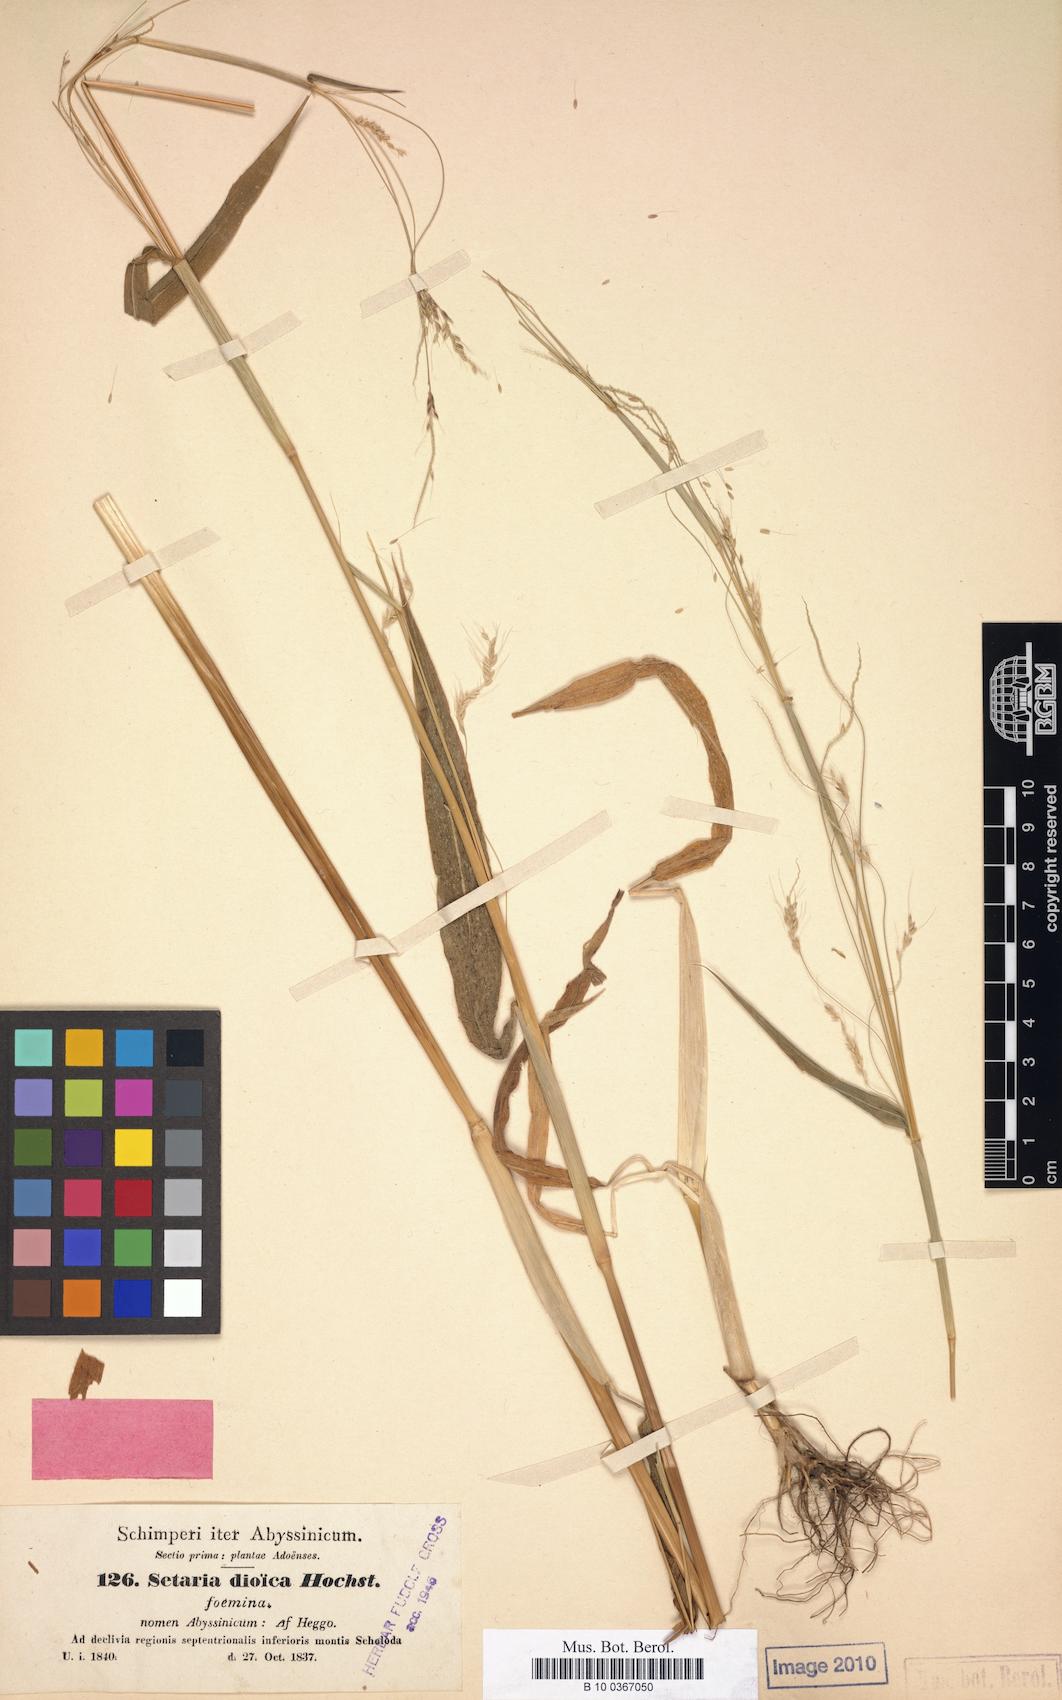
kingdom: Plantae
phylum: Tracheophyta
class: Liliopsida
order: Poales
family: Poaceae
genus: Cenchrus
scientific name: Cenchrus petiolaris
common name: Grass
